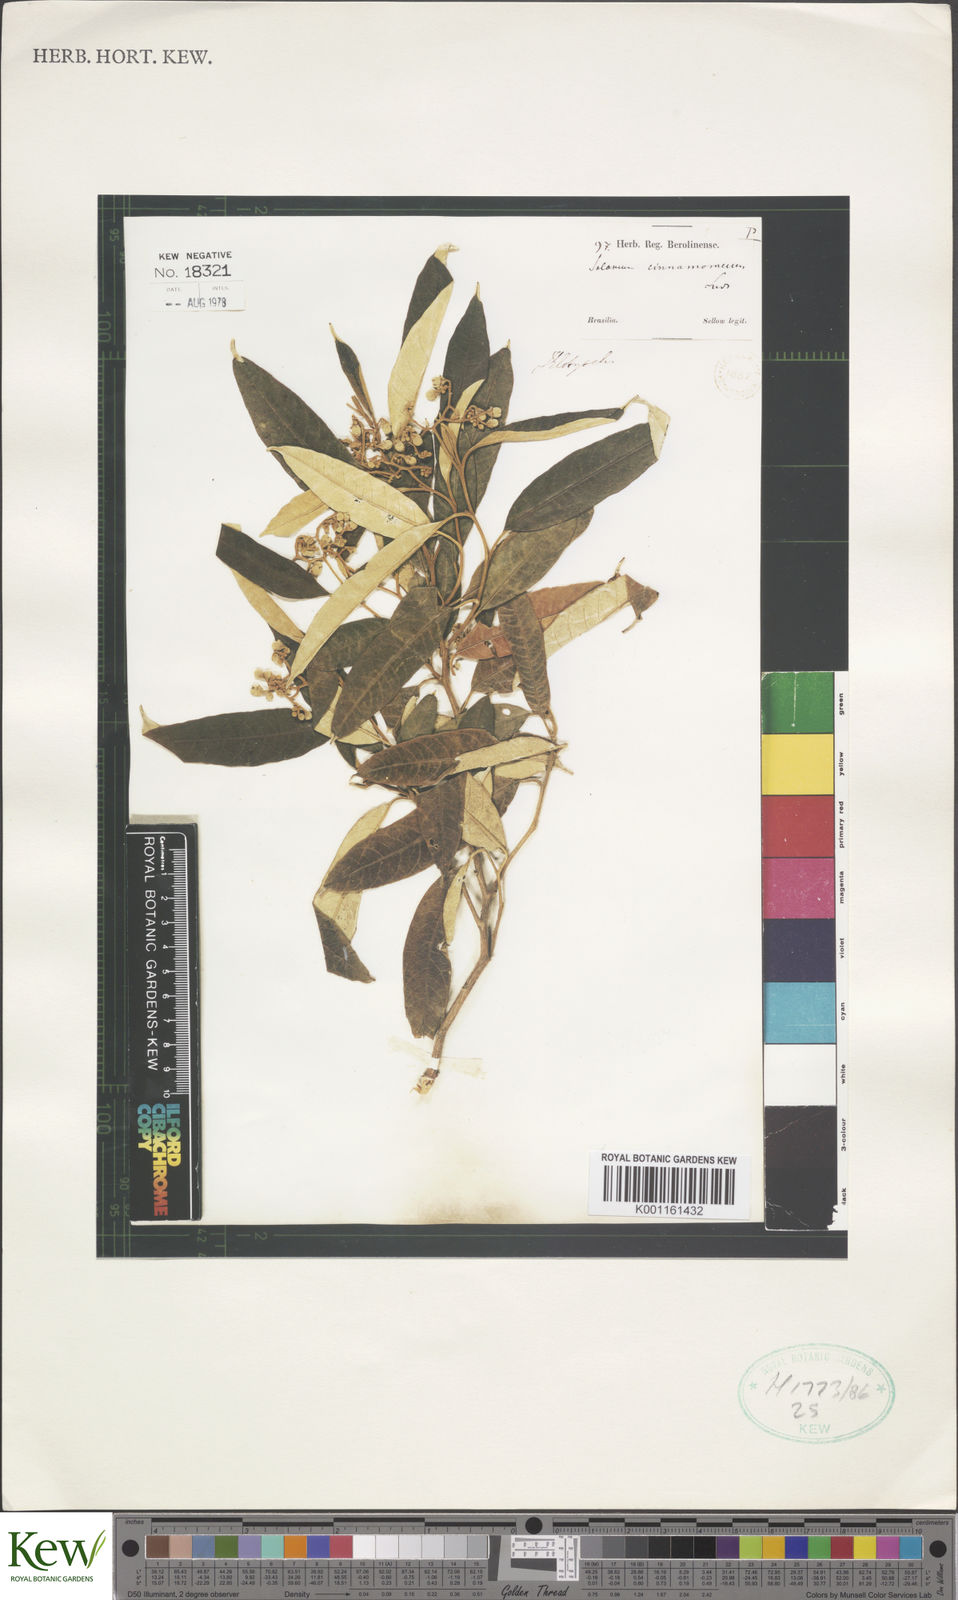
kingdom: Plantae
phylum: Tracheophyta
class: Magnoliopsida
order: Solanales
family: Solanaceae
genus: Solanum
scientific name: Solanum cinnamomeum
